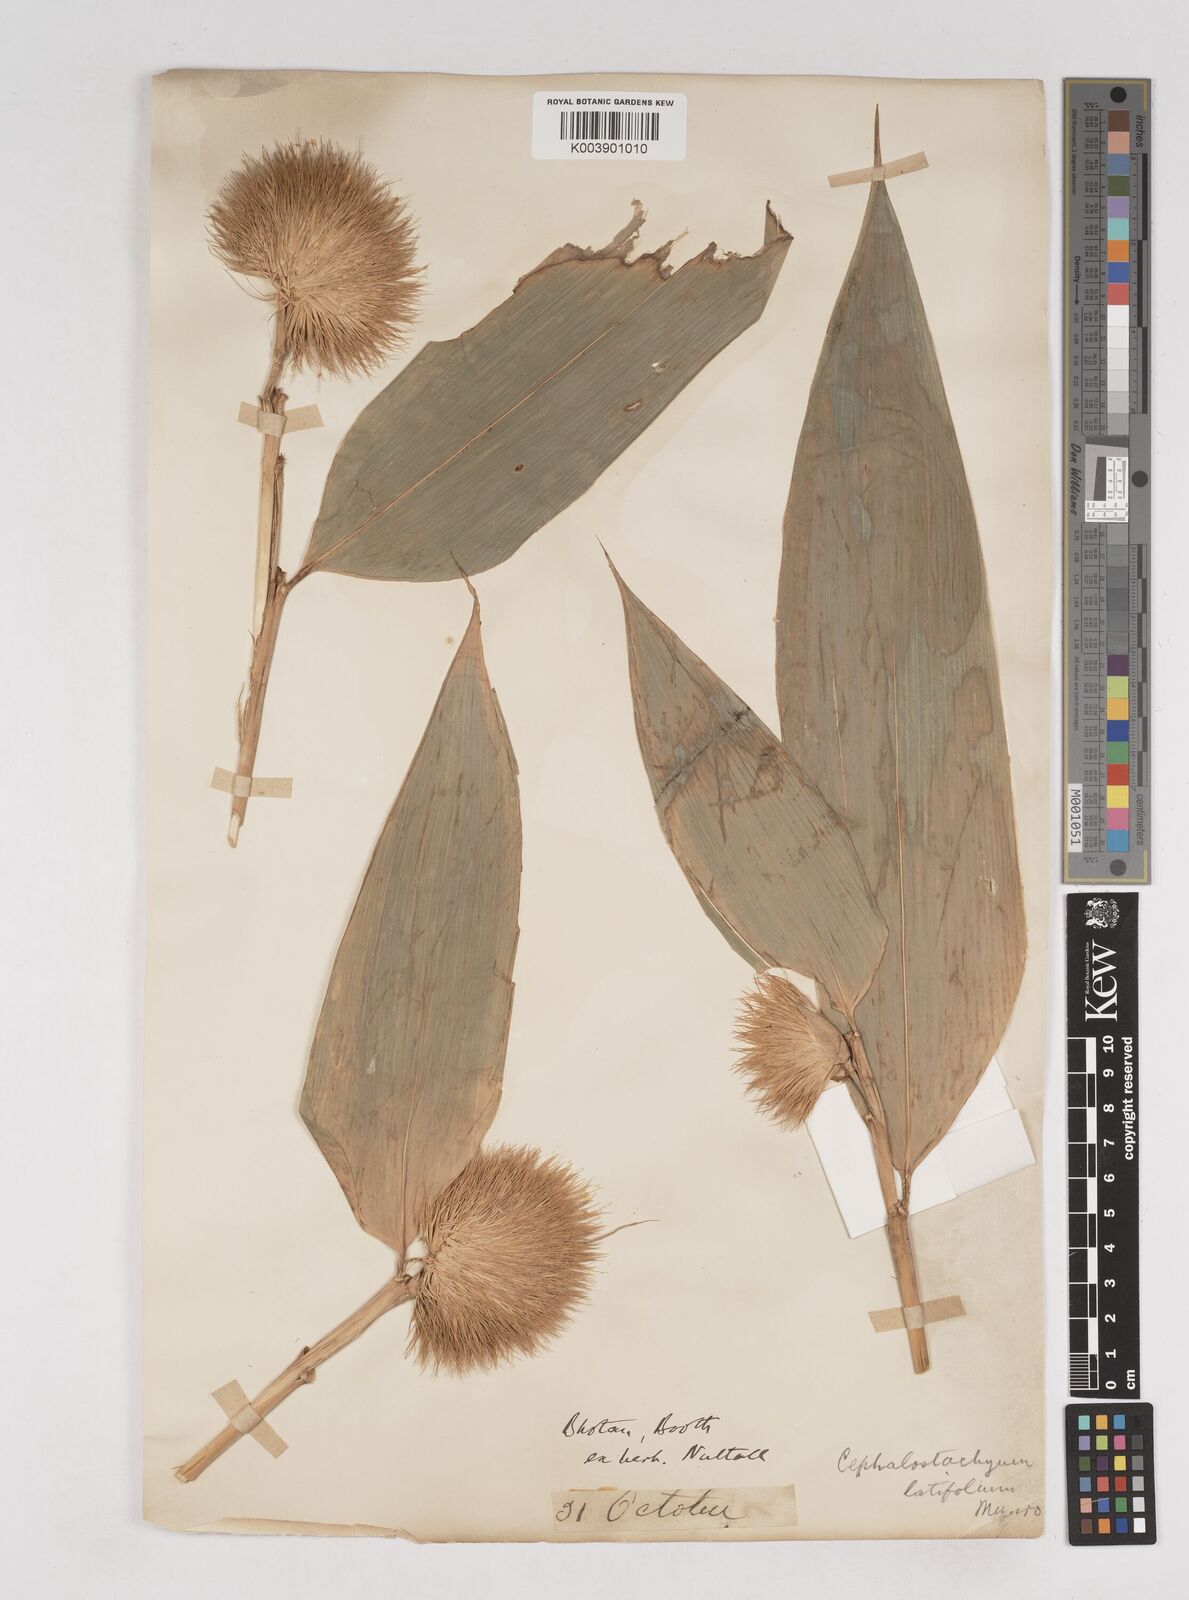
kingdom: Plantae
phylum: Tracheophyta
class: Liliopsida
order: Poales
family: Poaceae
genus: Cephalostachyum
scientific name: Cephalostachyum
